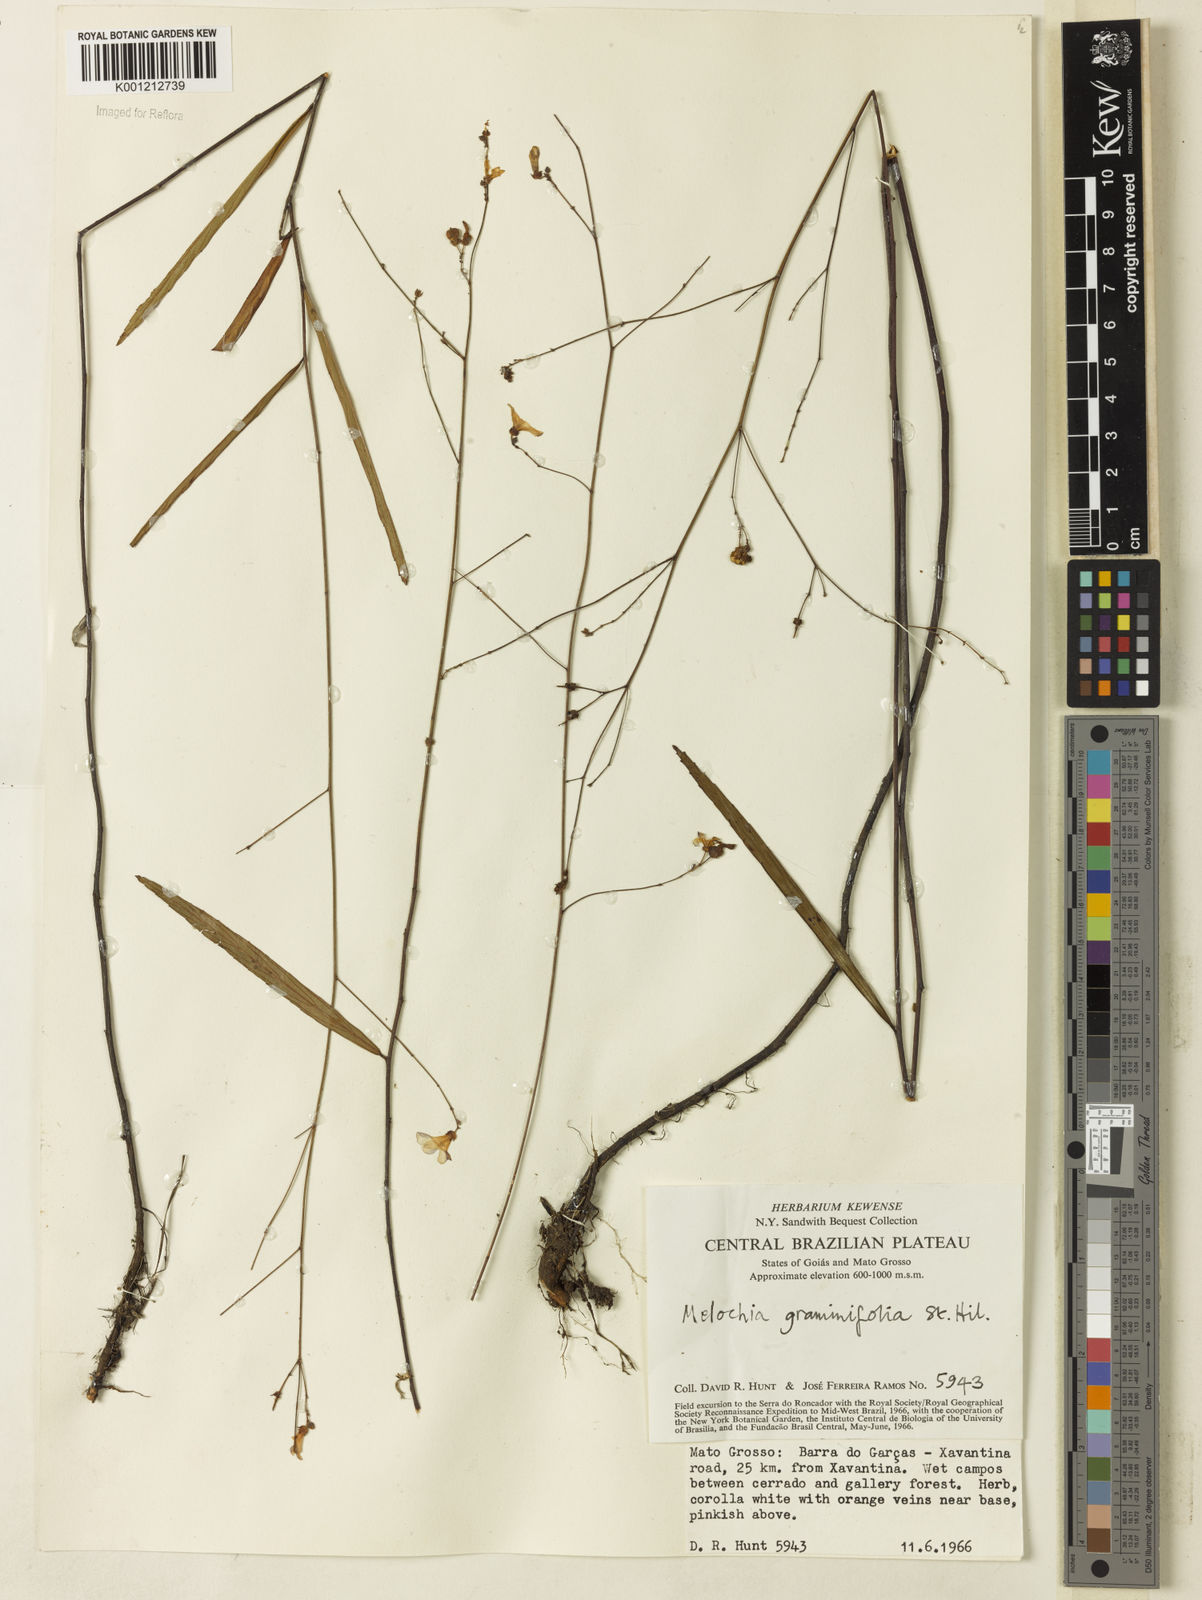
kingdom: Plantae
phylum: Tracheophyta
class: Magnoliopsida
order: Malvales
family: Malvaceae
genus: Melochia
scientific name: Melochia graminifolia
